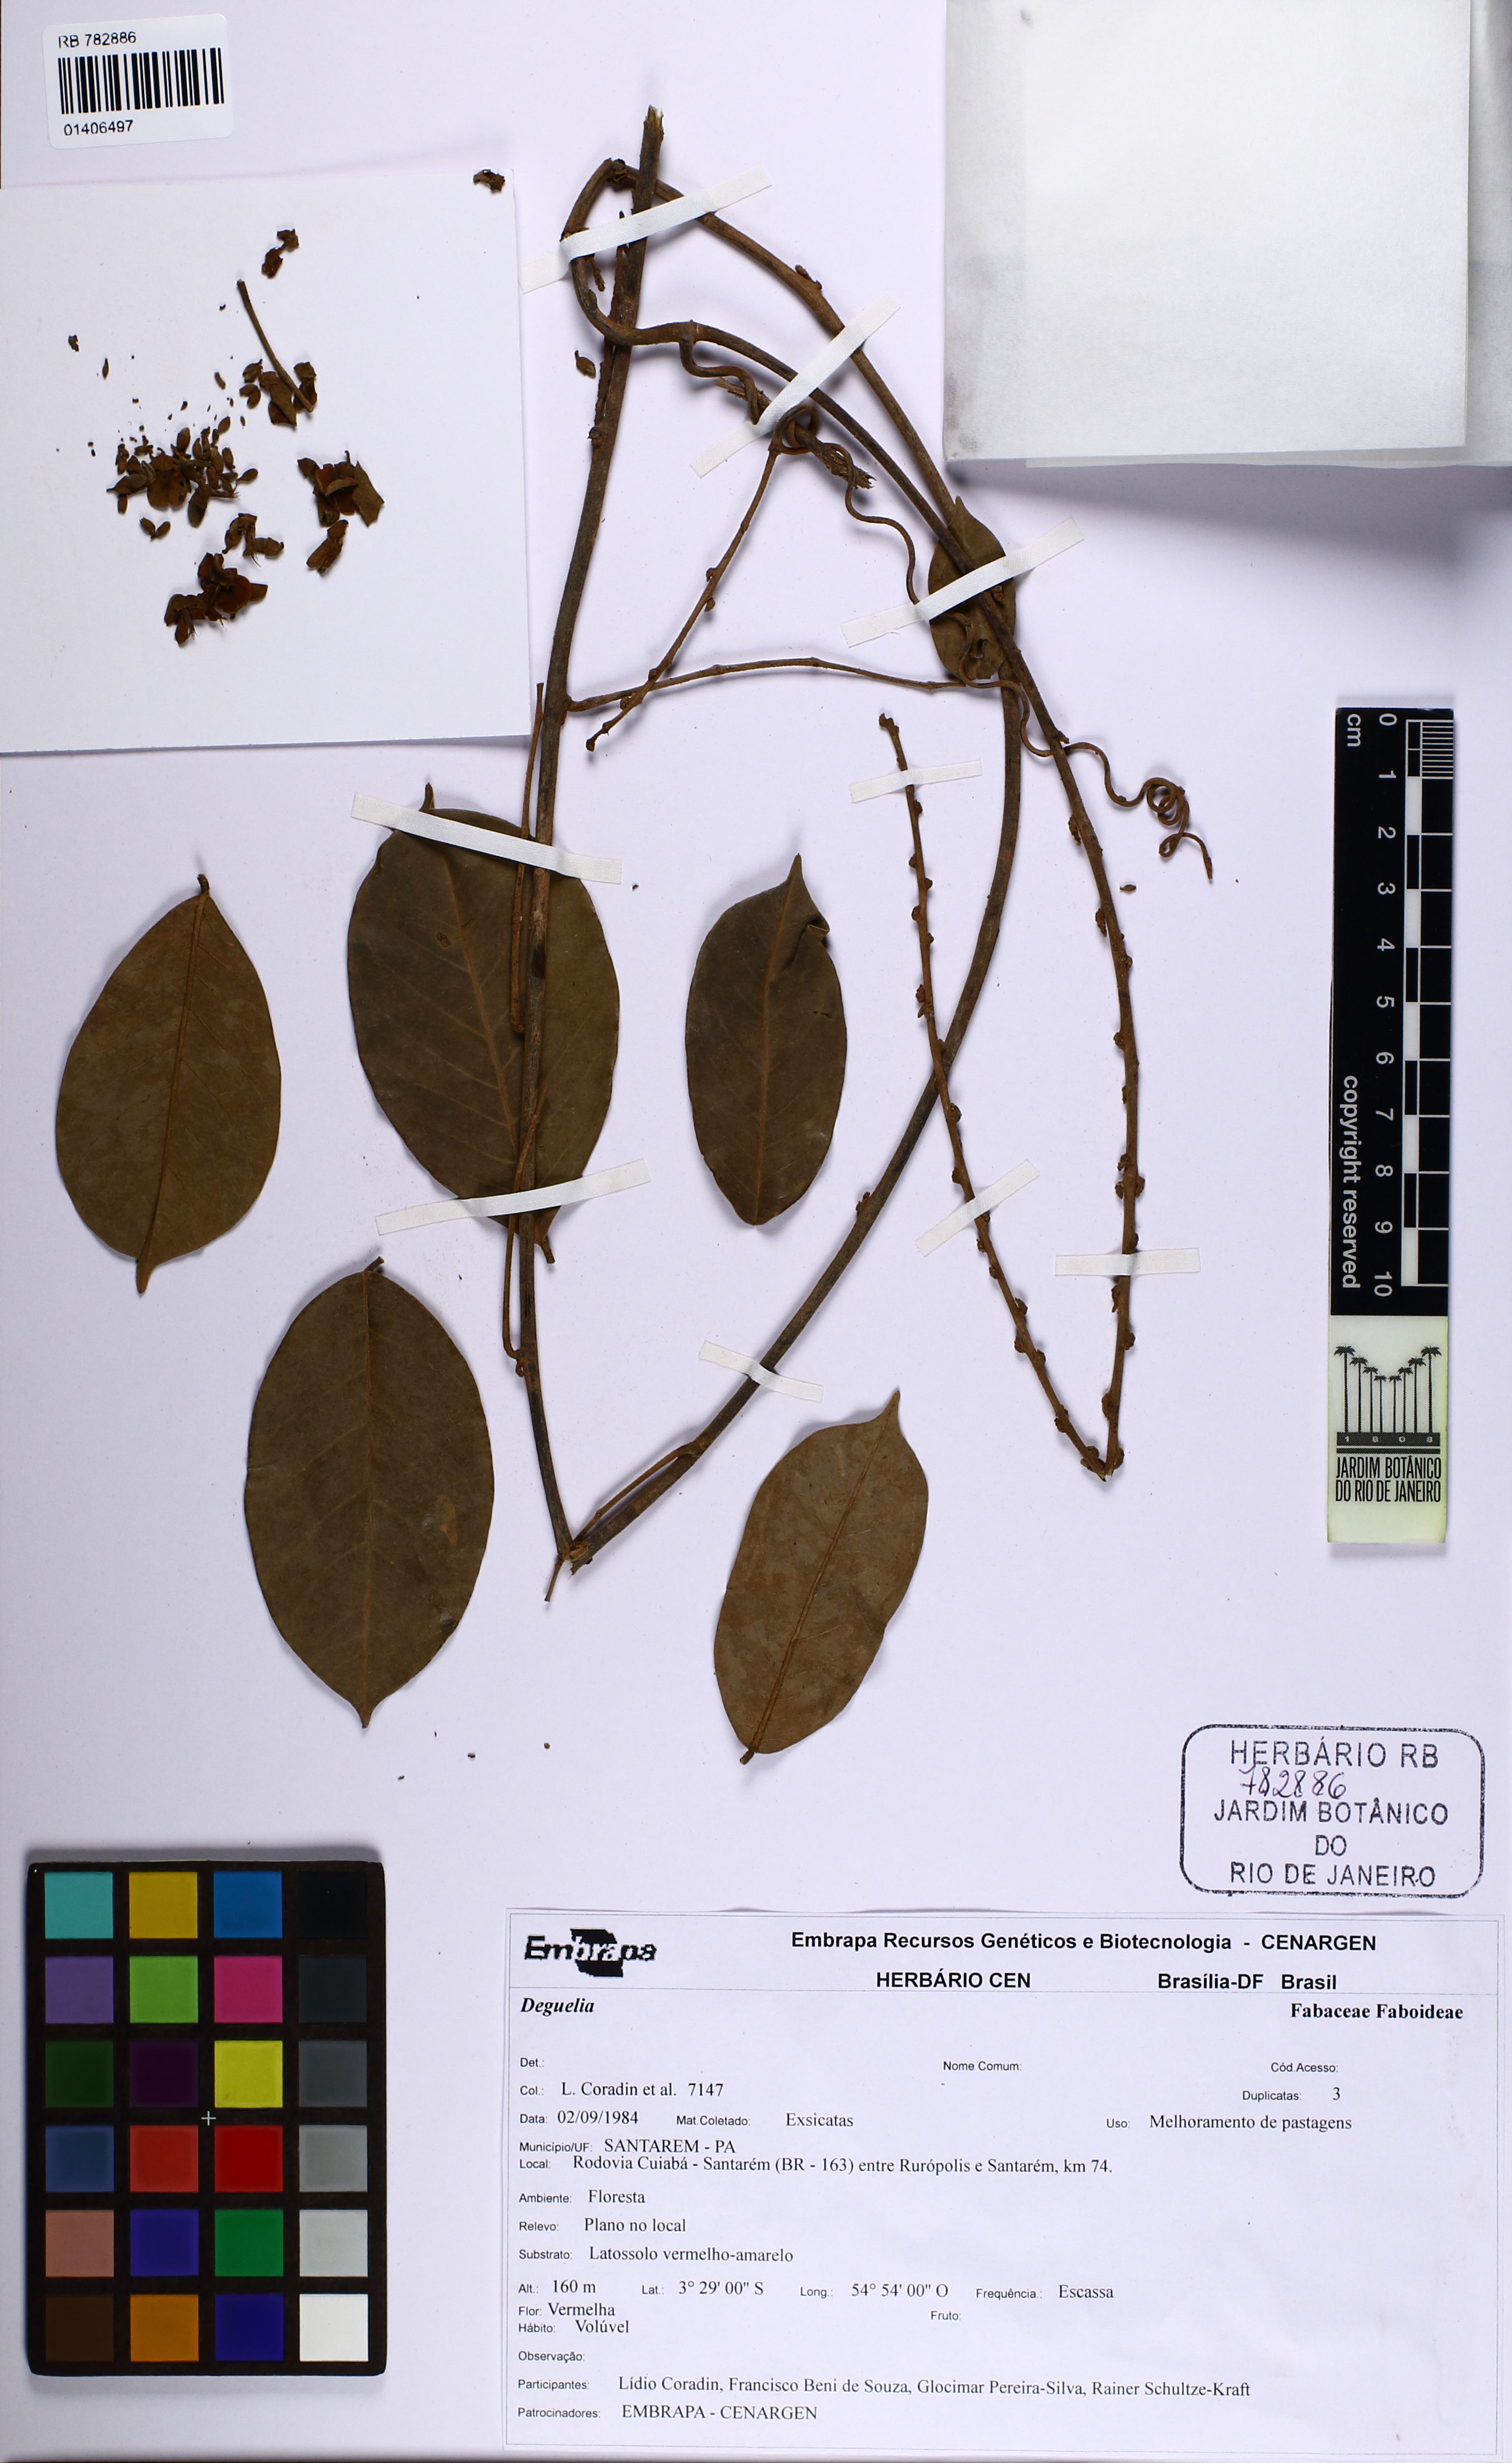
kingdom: Plantae
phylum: Tracheophyta
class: Magnoliopsida
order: Fabales
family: Fabaceae
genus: Deguelia
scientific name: Deguelia
